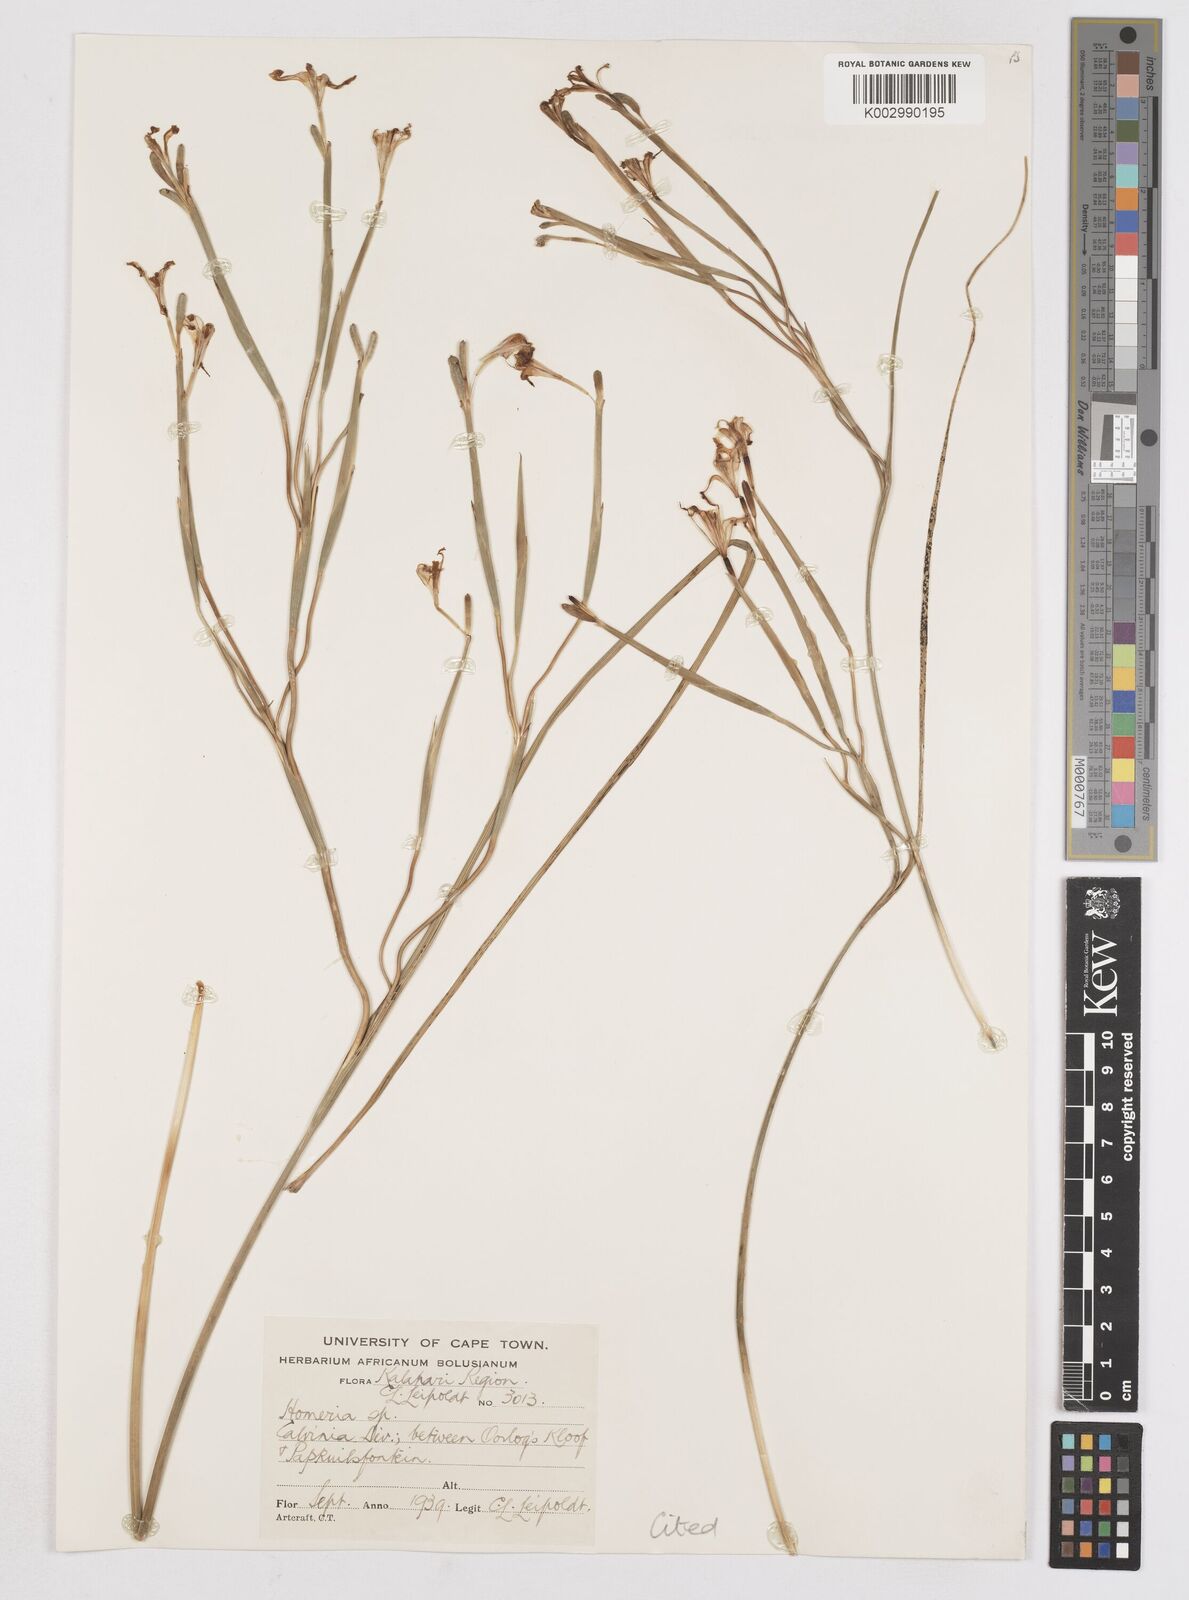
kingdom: Plantae
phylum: Tracheophyta
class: Liliopsida
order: Asparagales
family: Iridaceae
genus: Moraea
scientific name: Moraea vallisavium
